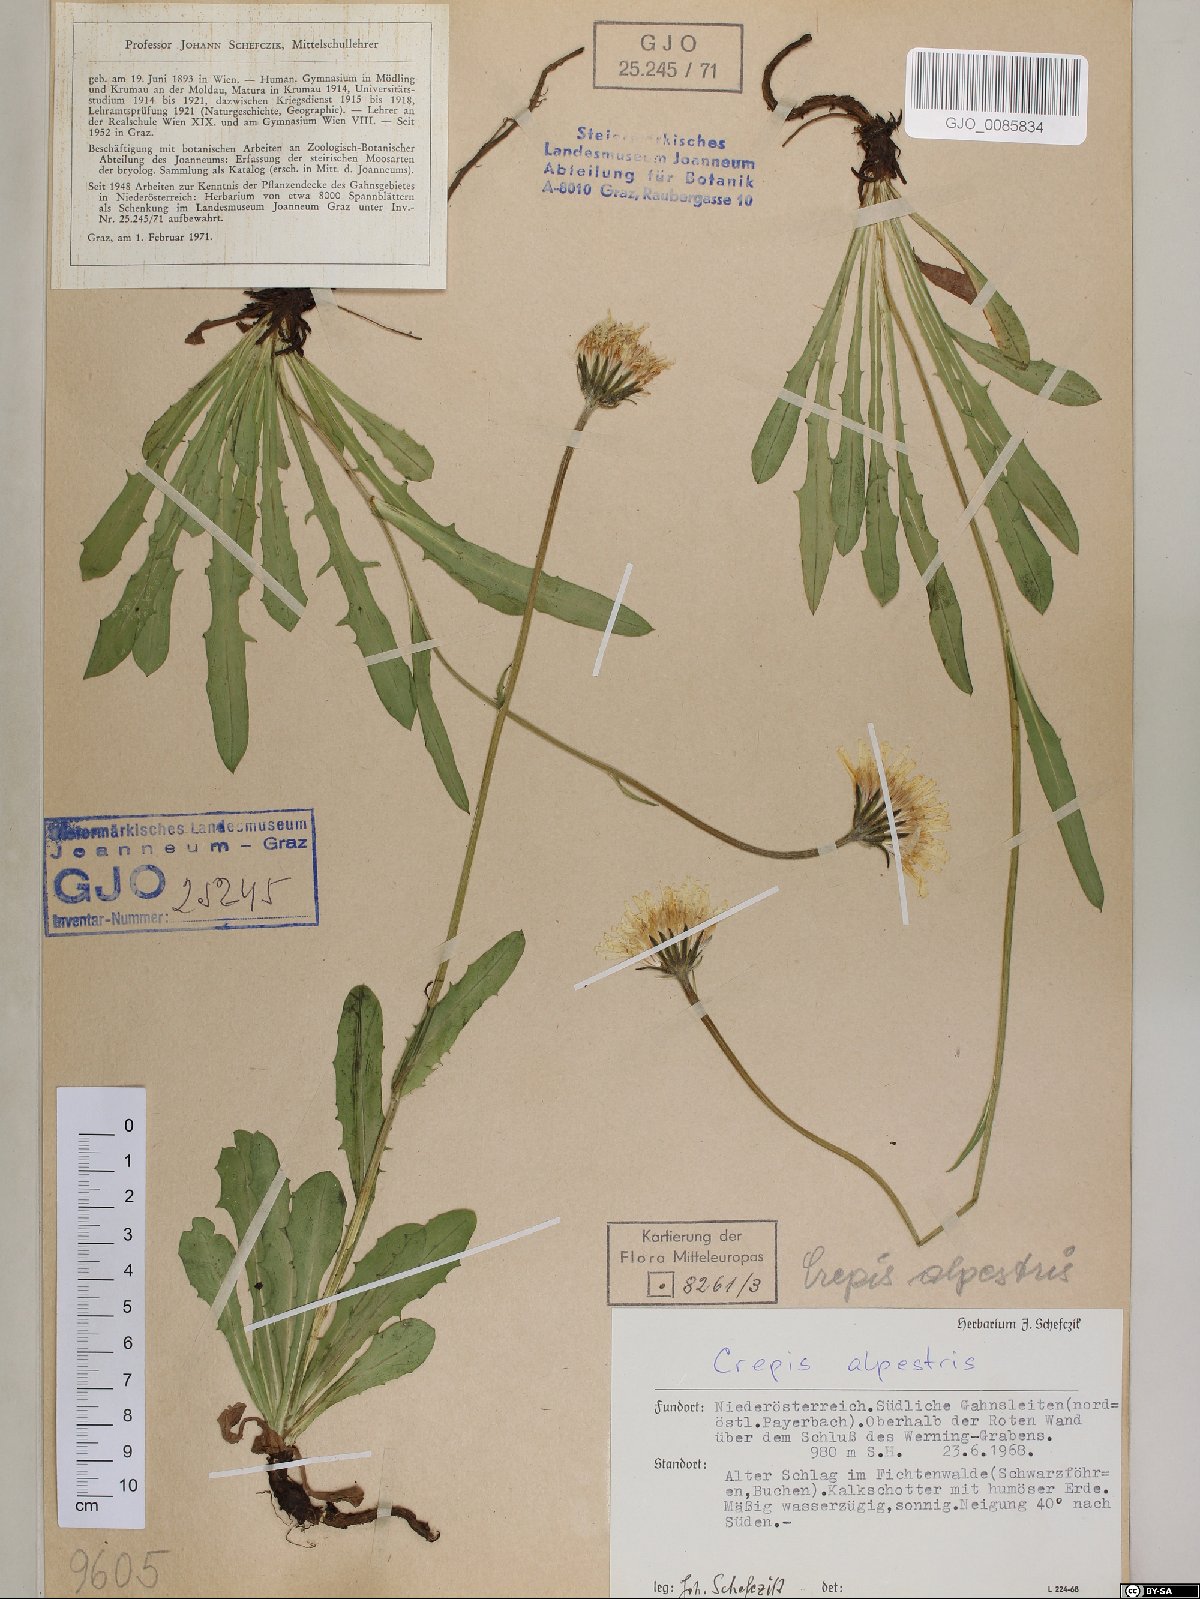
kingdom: Plantae
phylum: Tracheophyta
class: Magnoliopsida
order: Asterales
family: Asteraceae
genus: Crepis
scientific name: Crepis alpestris
